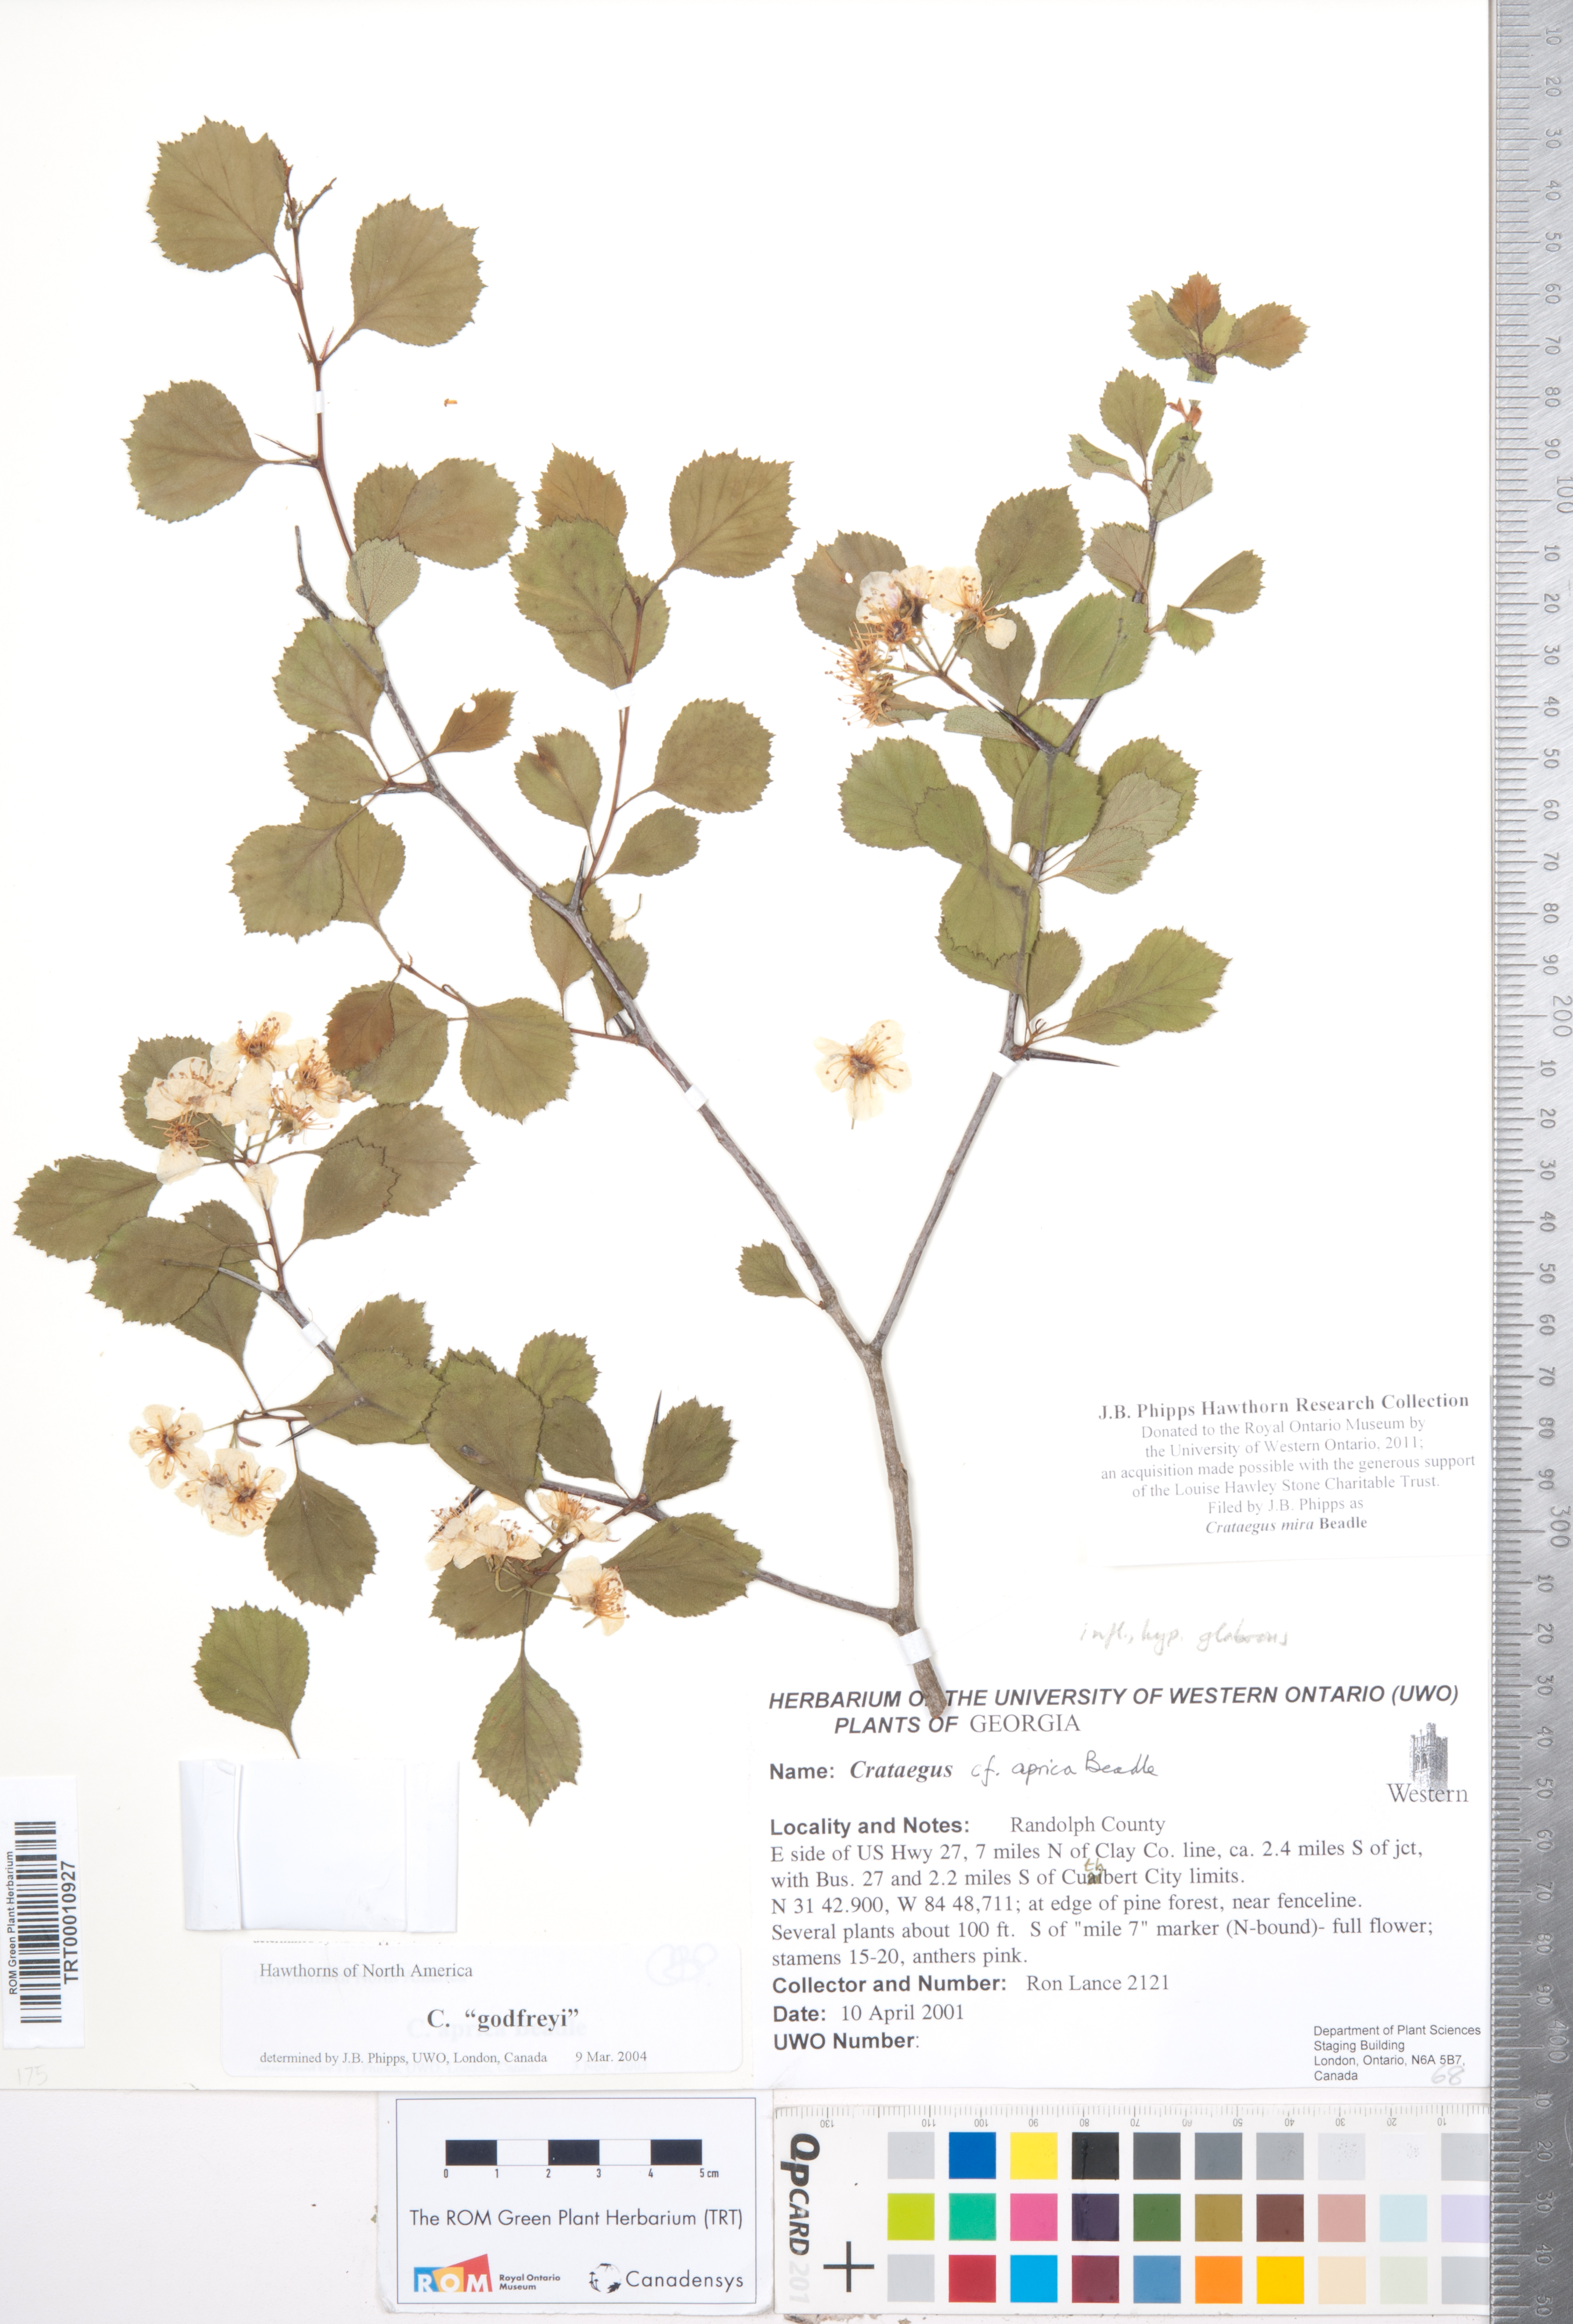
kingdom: Plantae
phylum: Tracheophyta
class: Magnoliopsida
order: Rosales
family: Rosaceae
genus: Crataegus
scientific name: Crataegus alleghaniensis
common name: Allegheny hawthorn
